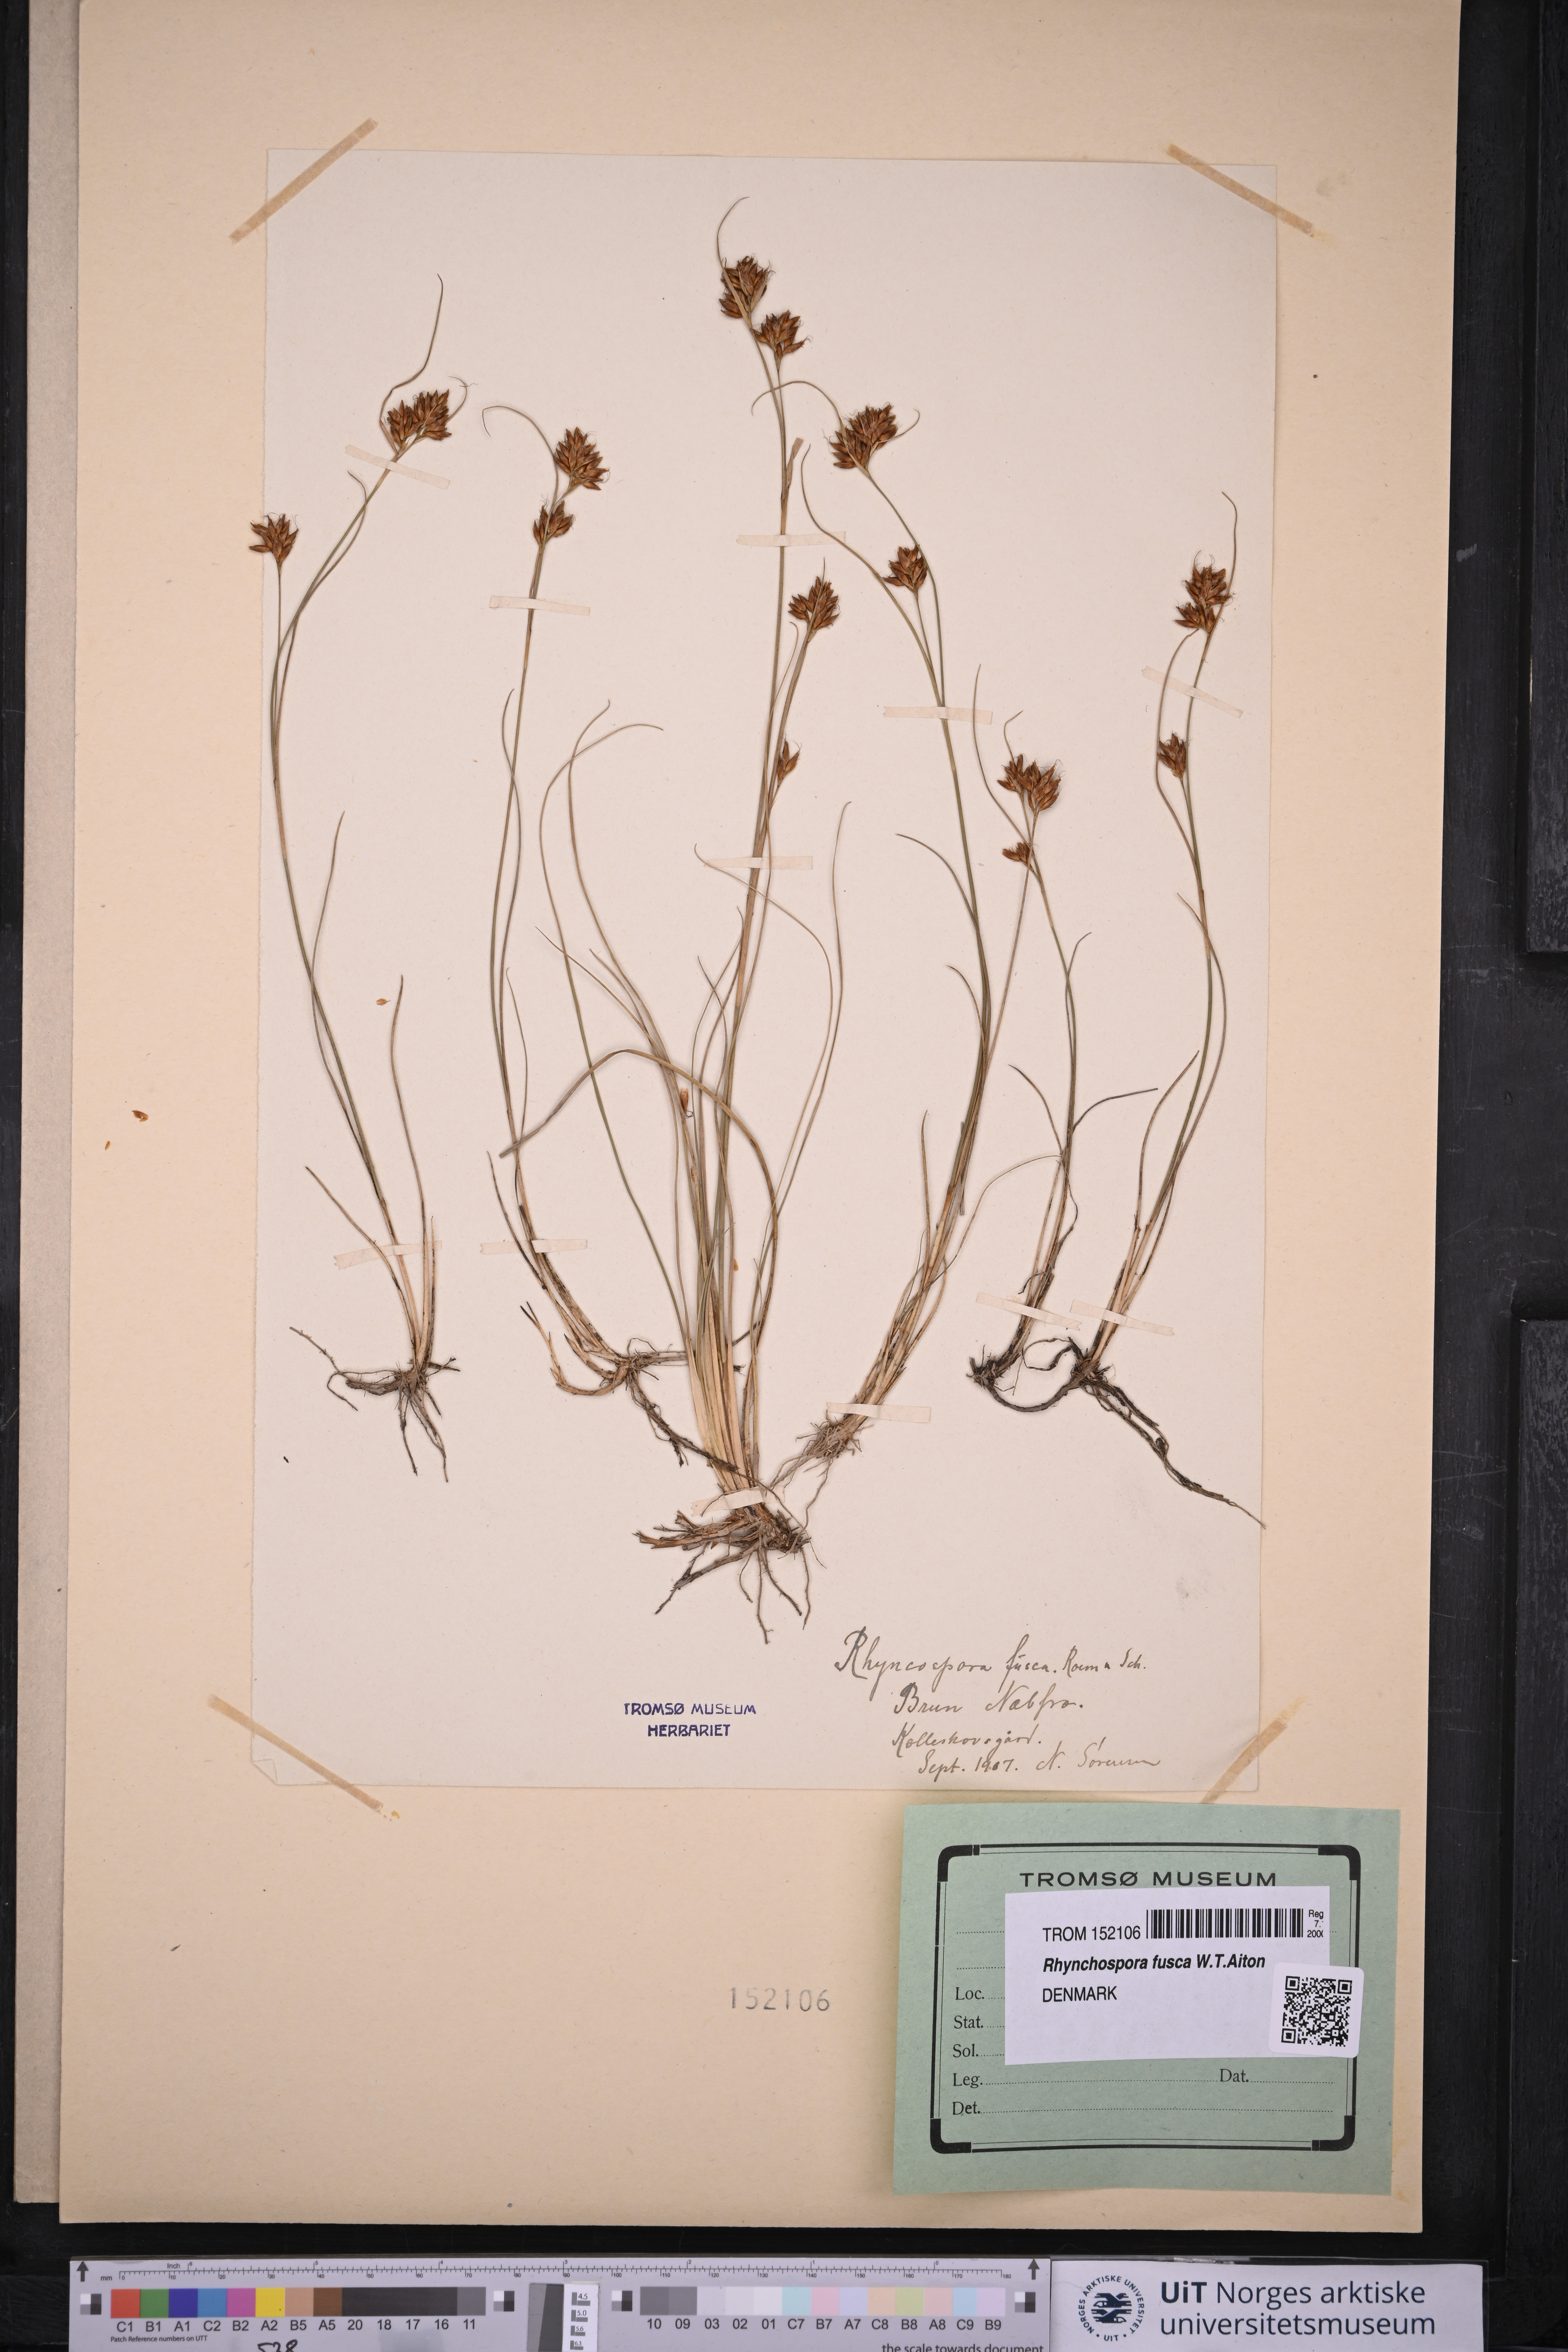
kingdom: Plantae
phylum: Tracheophyta
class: Liliopsida
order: Poales
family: Cyperaceae
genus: Rhynchospora
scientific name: Rhynchospora fusca
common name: Brown beak-sedge
